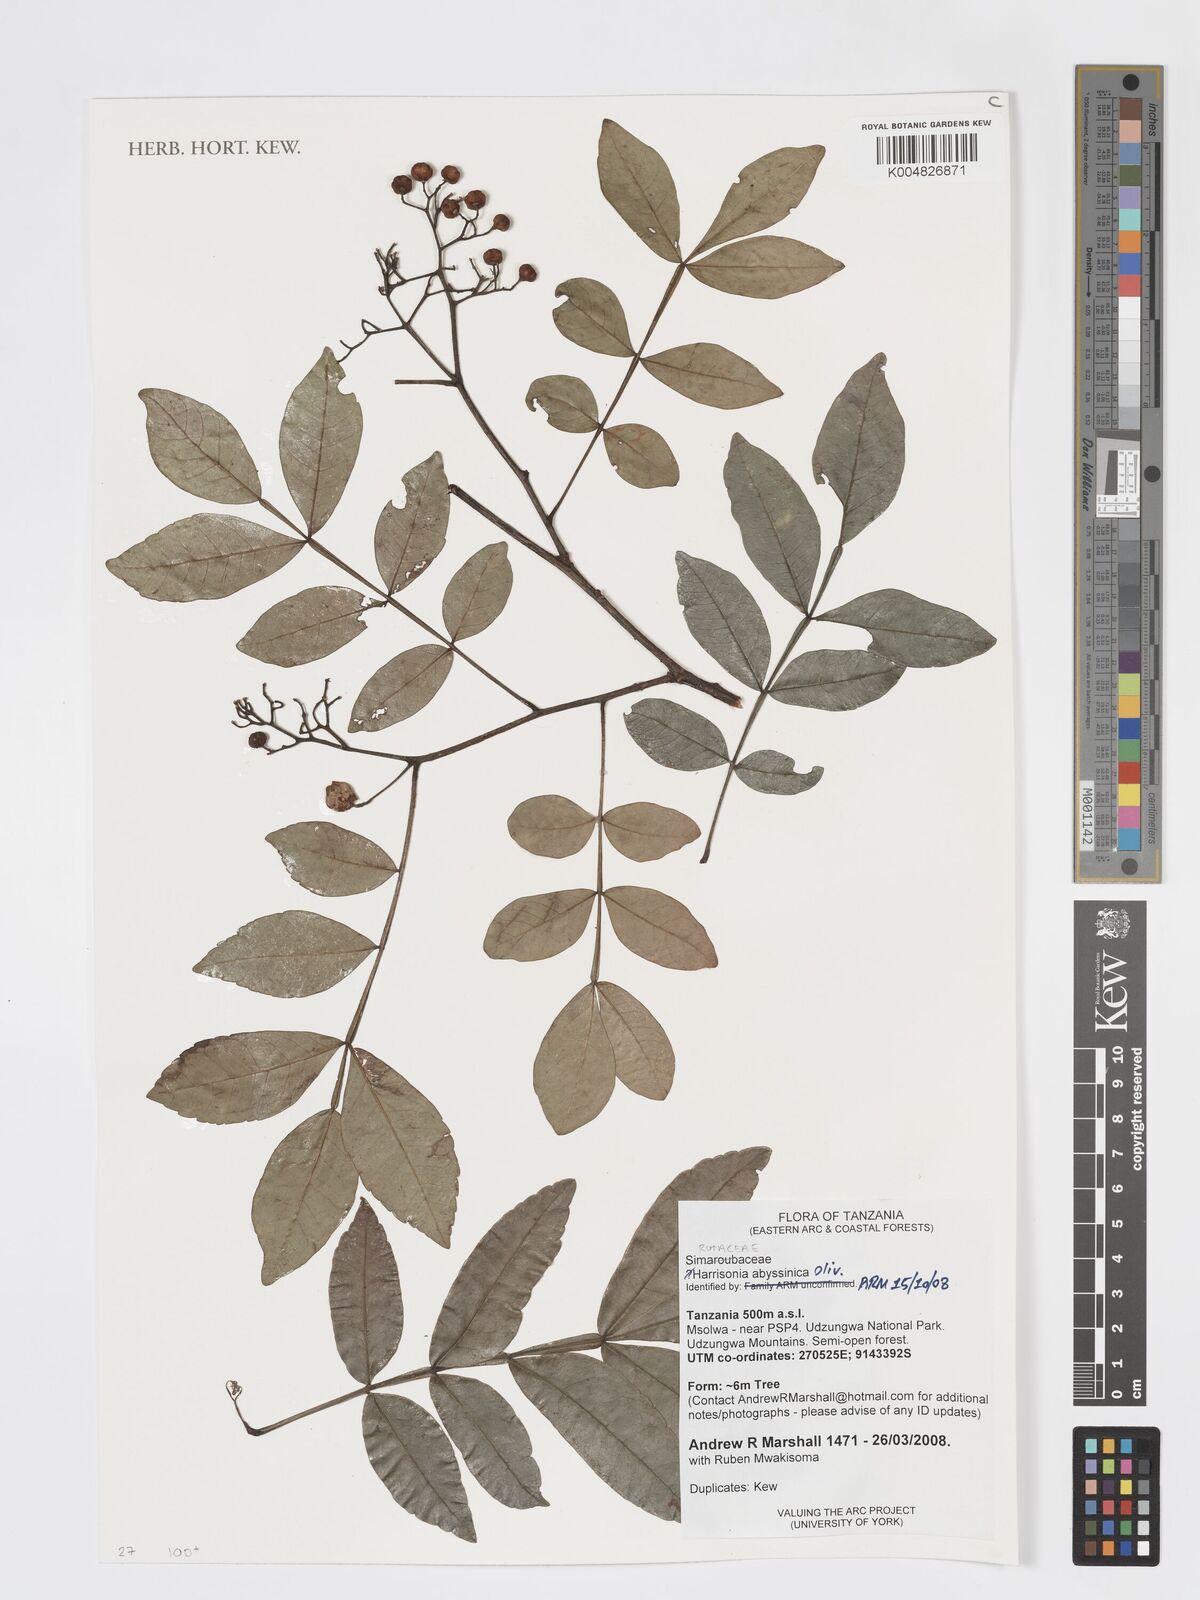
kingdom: Plantae
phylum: Tracheophyta
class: Magnoliopsida
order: Sapindales
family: Rutaceae
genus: Harrisonia
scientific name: Harrisonia abyssinica
